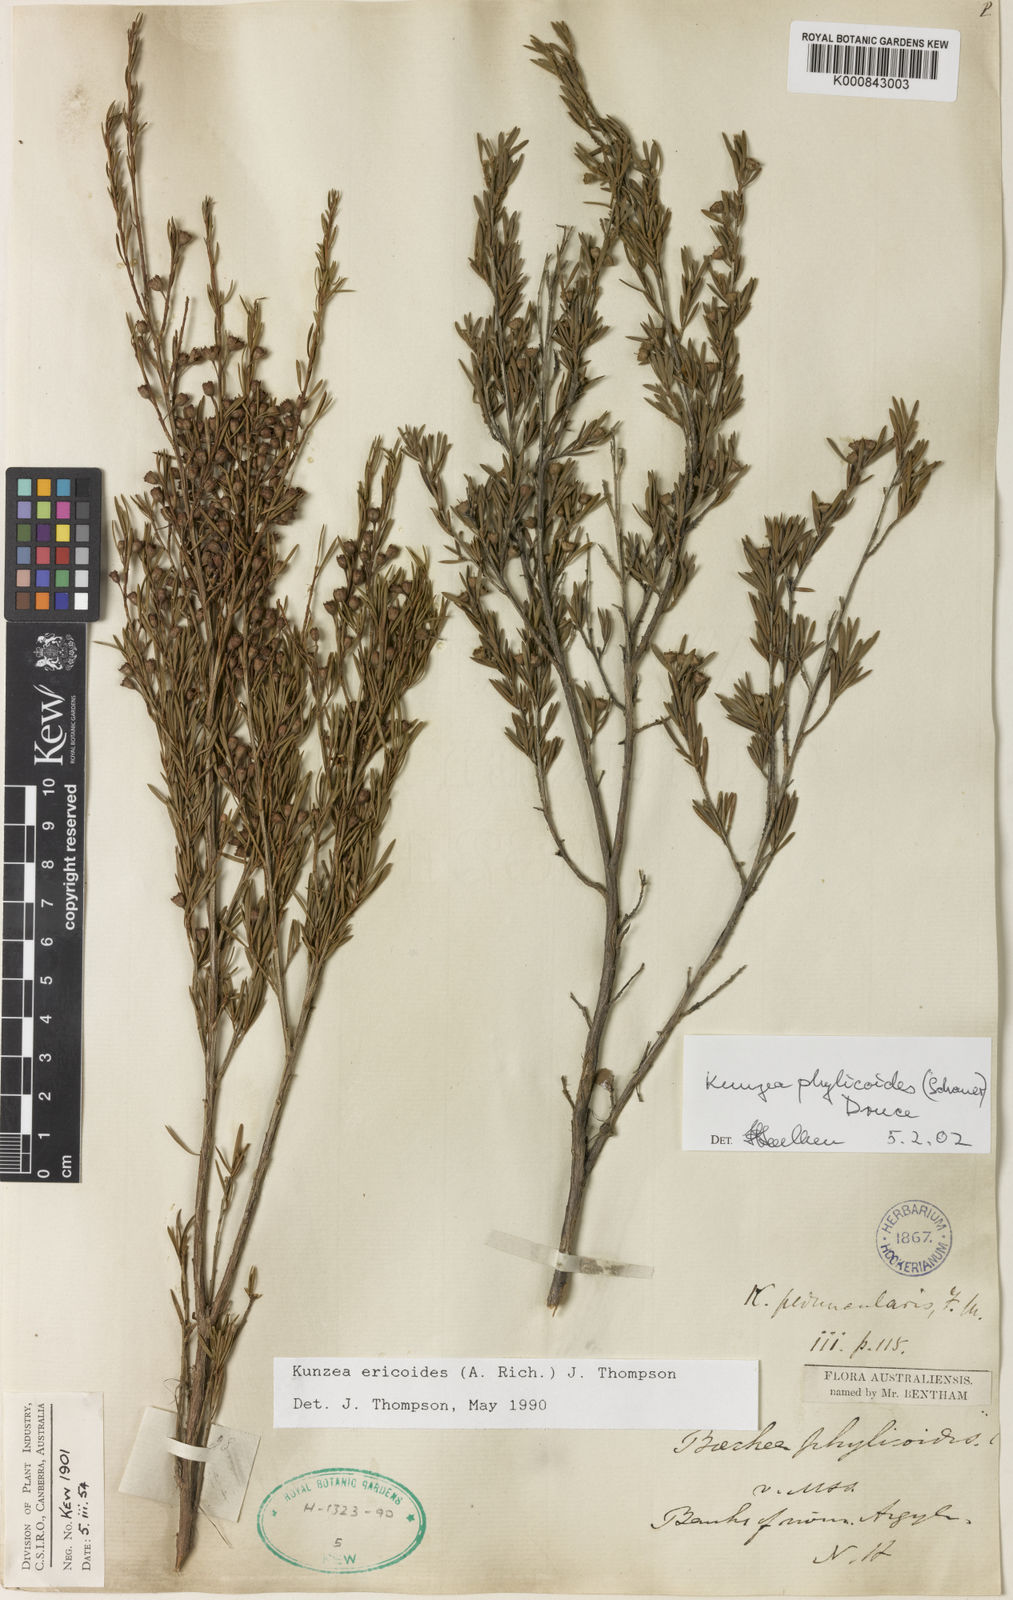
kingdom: Plantae
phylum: Tracheophyta
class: Magnoliopsida
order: Myrtales
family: Myrtaceae
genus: Kunzea
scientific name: Kunzea ericoides
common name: Burgan
